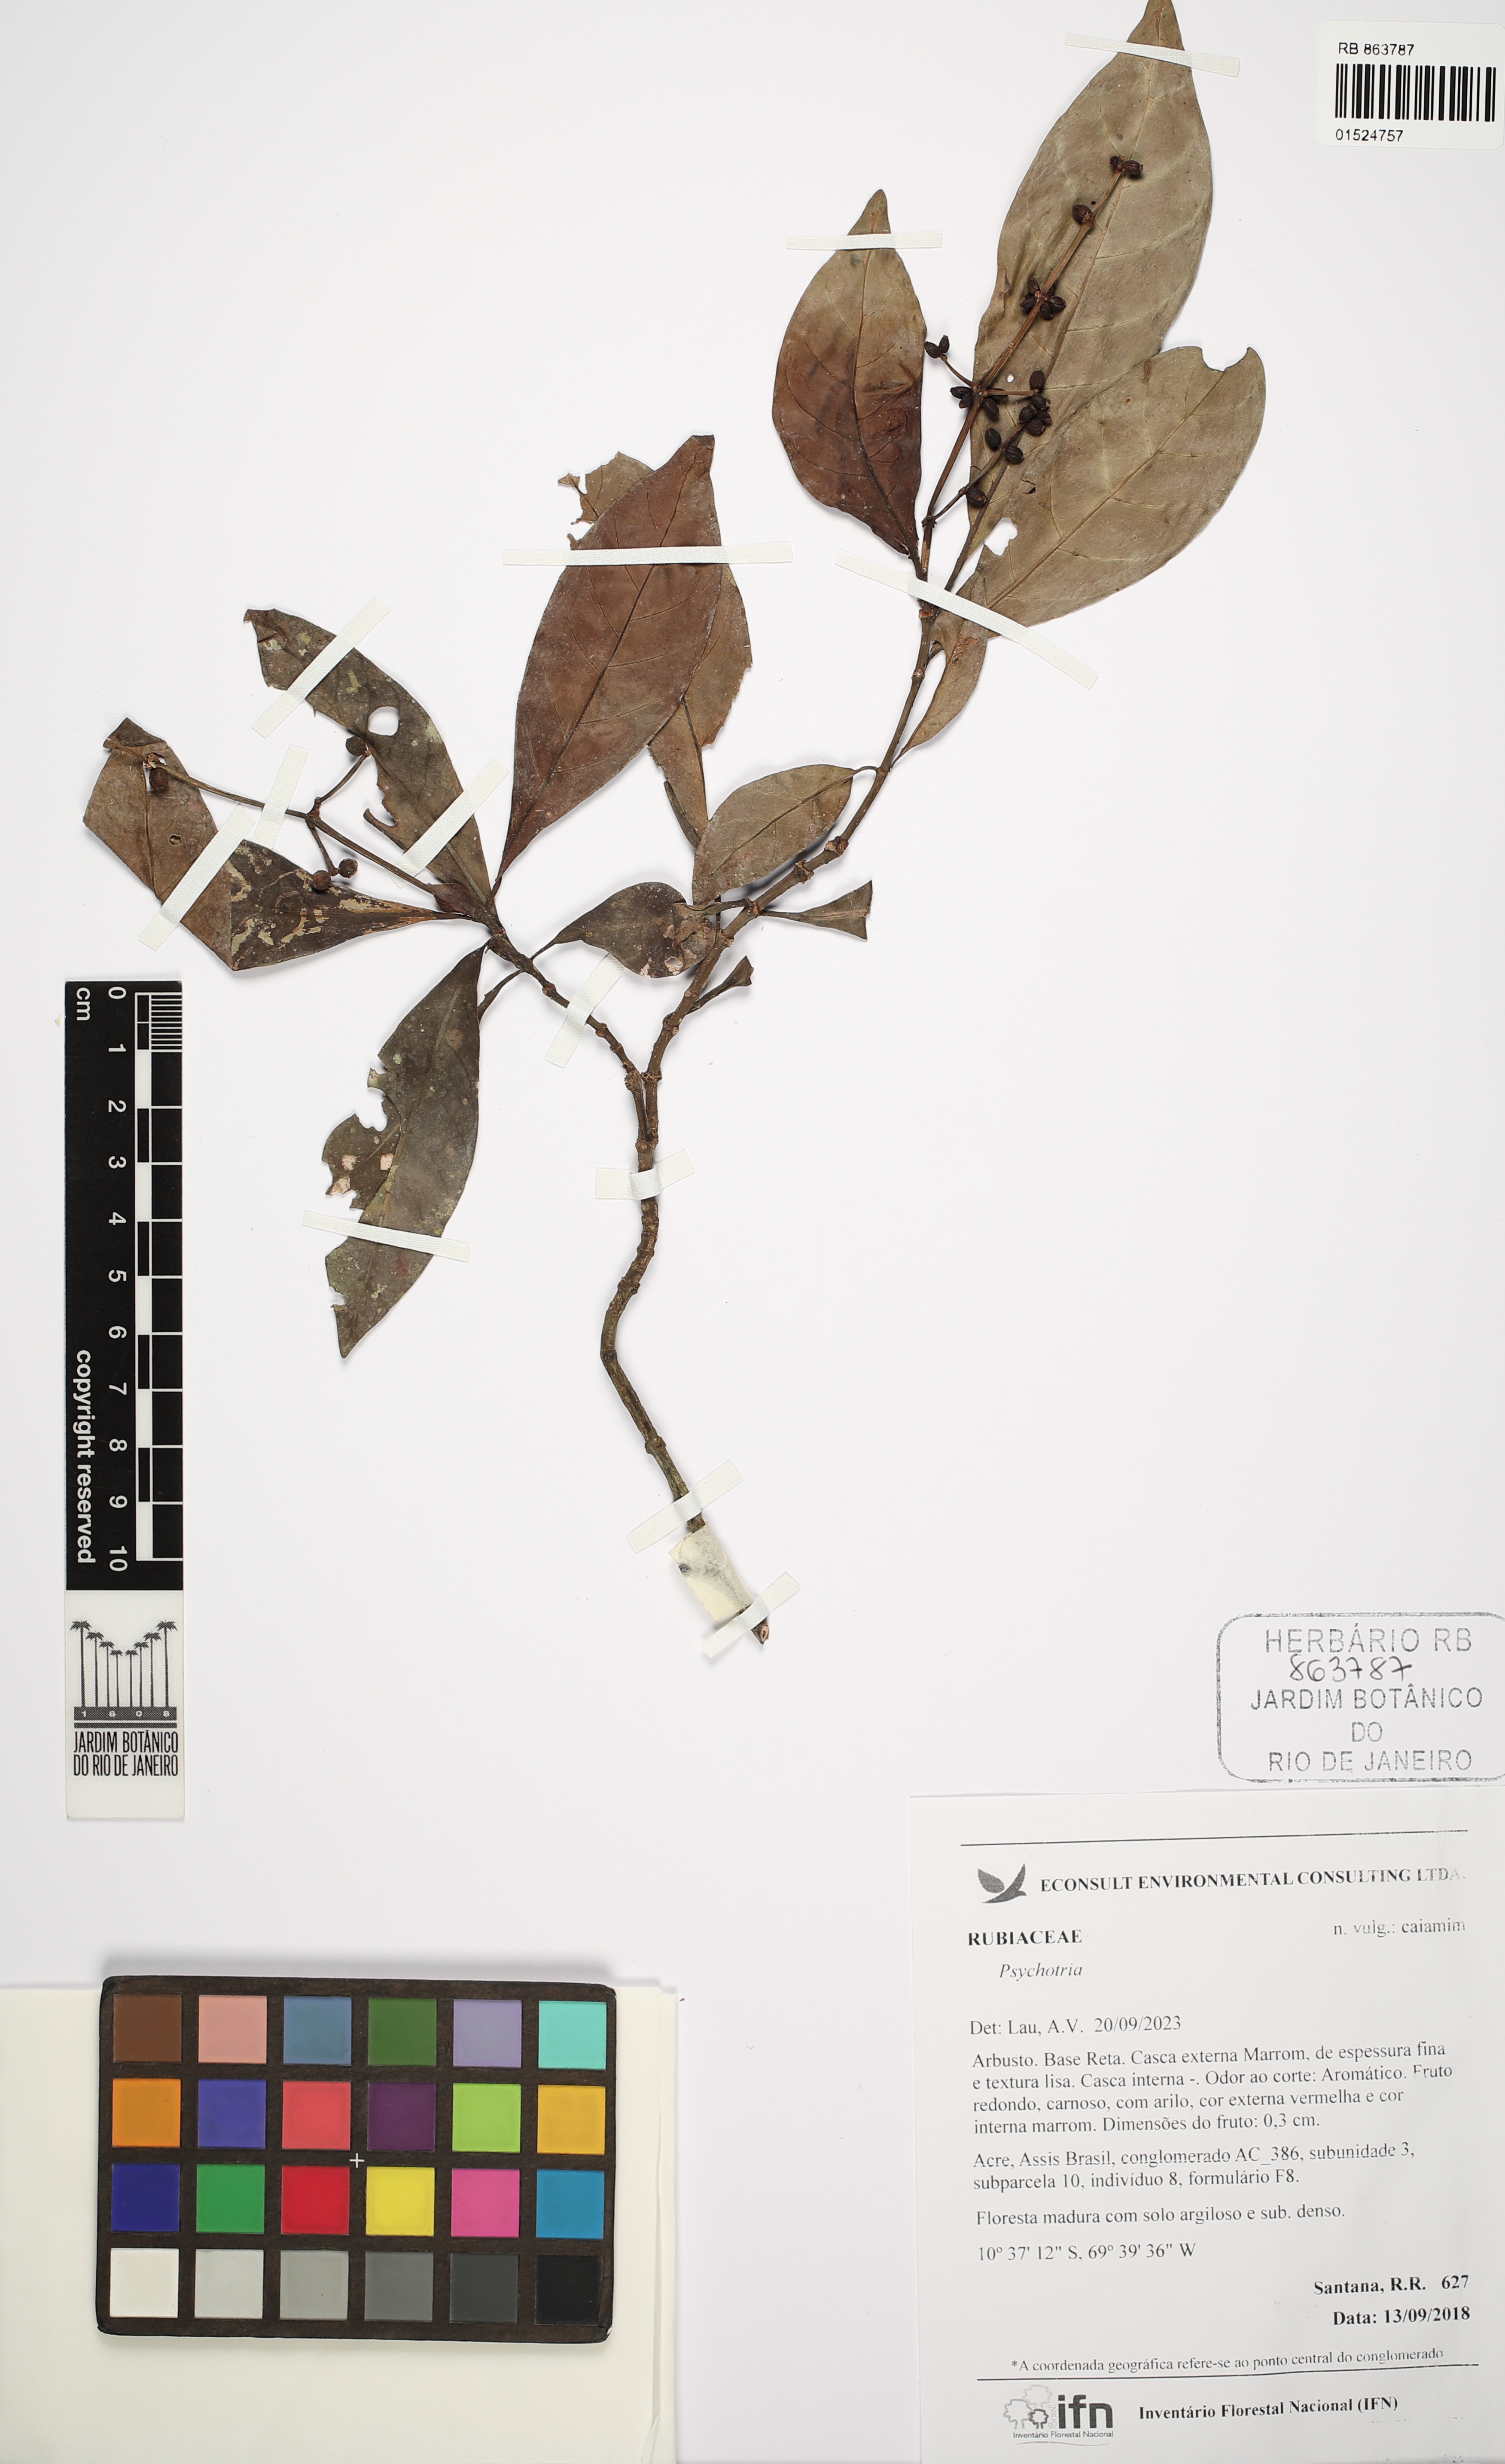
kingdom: Plantae
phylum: Tracheophyta
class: Magnoliopsida
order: Gentianales
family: Rubiaceae
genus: Psychotria
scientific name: Psychotria
